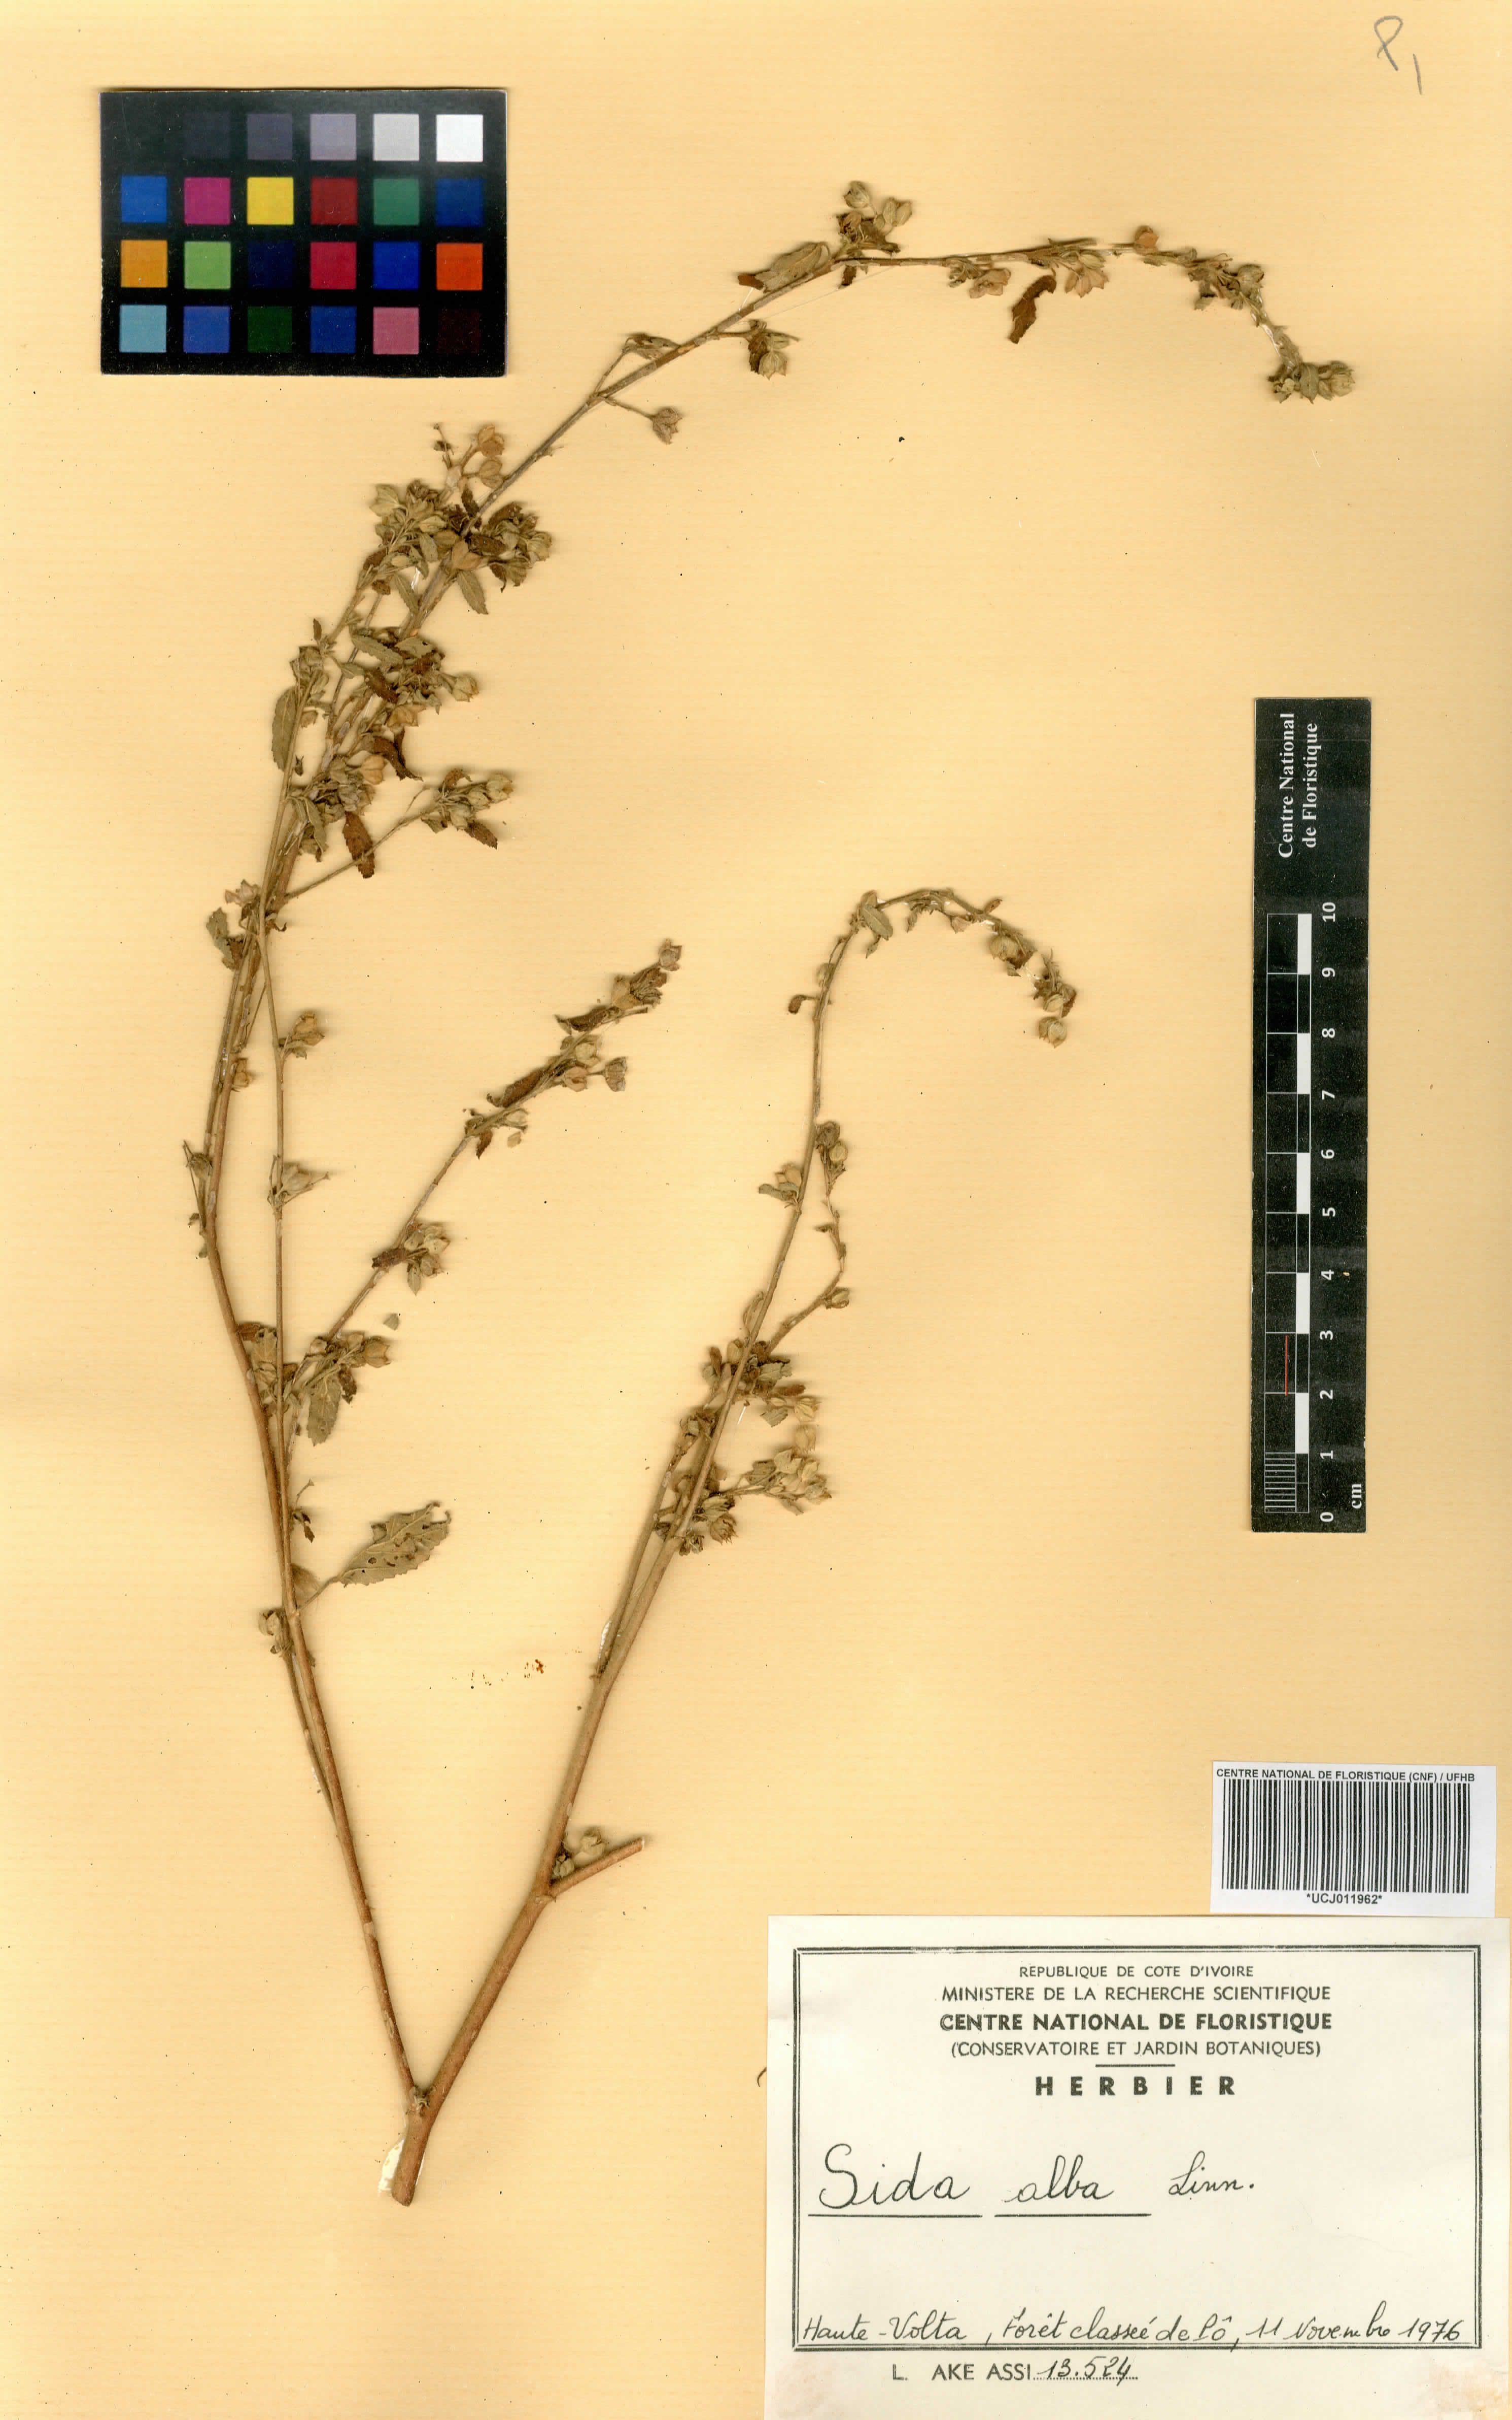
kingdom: Plantae
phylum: Tracheophyta
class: Magnoliopsida
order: Malvales
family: Malvaceae
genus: Sida
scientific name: Sida alba
